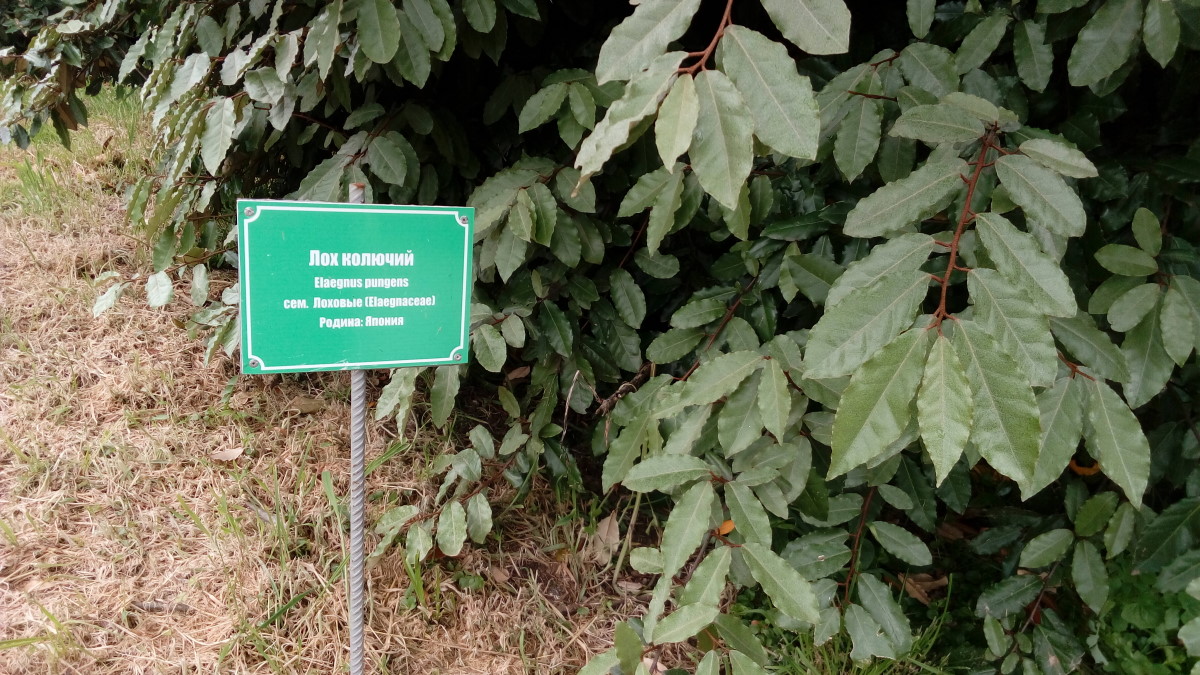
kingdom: Plantae
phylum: Tracheophyta
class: Magnoliopsida
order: Rosales
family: Elaeagnaceae
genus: Elaeagnus
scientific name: Elaeagnus pungens
